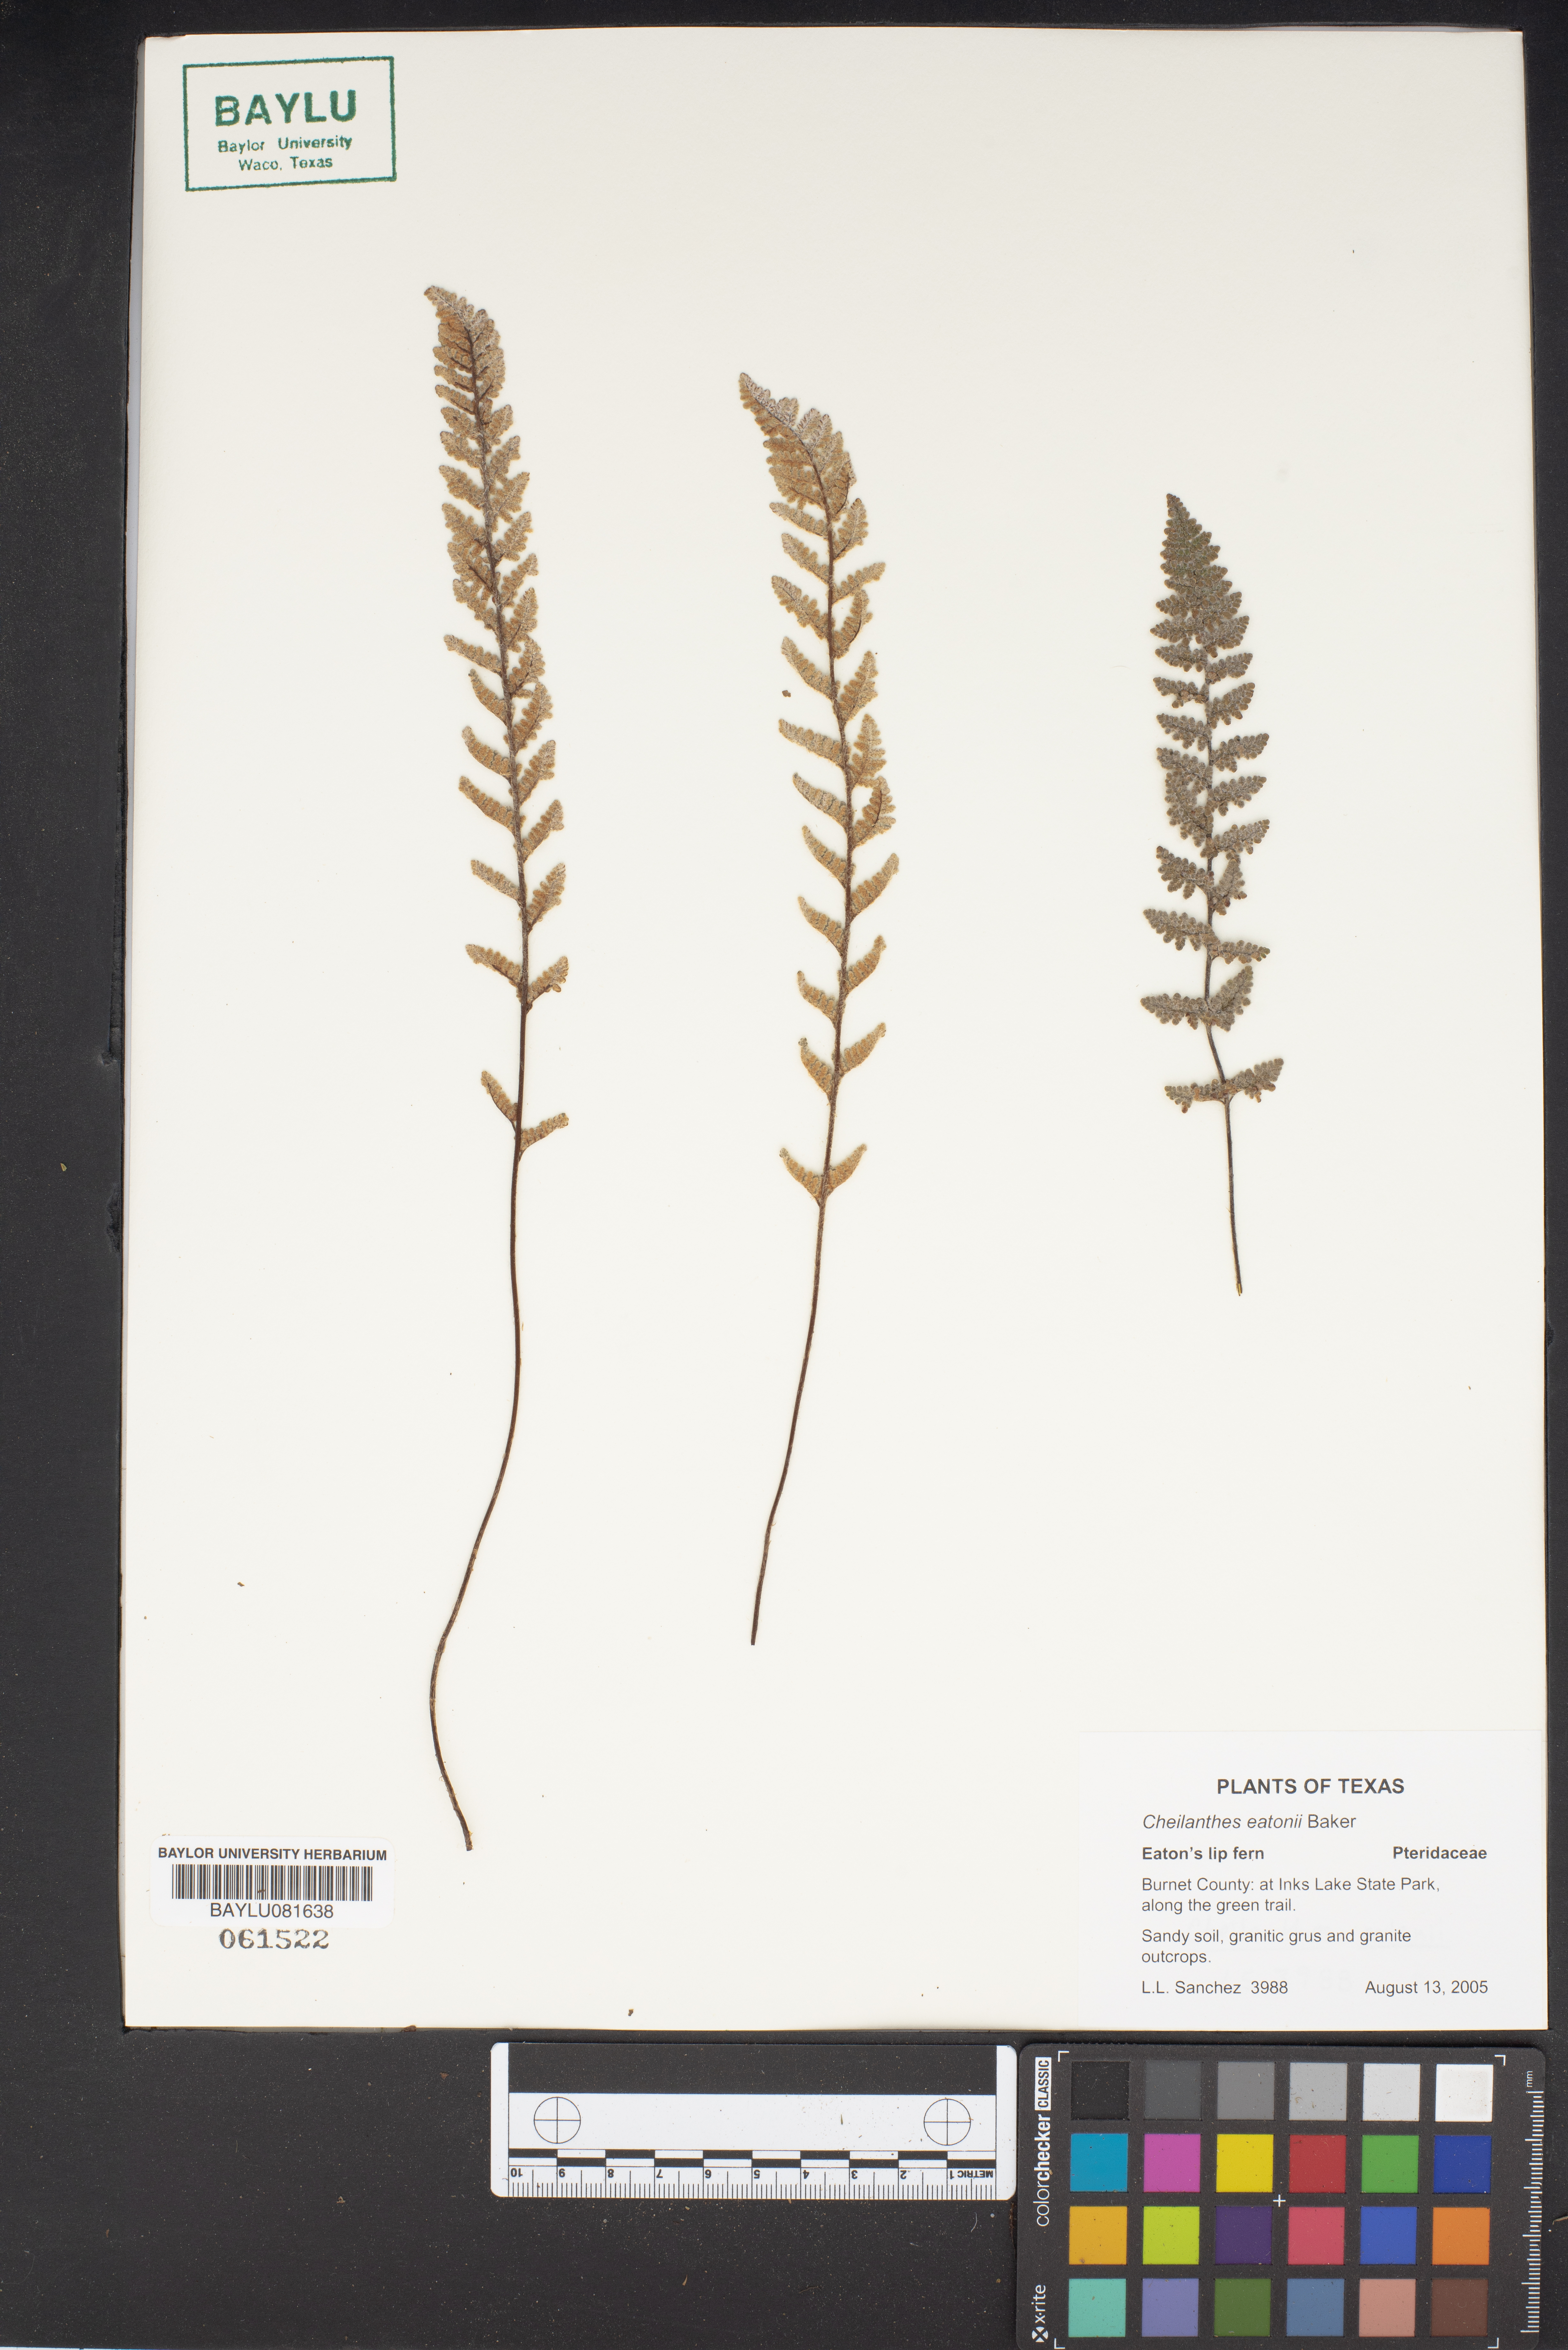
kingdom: Plantae
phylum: Tracheophyta
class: Polypodiopsida
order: Polypodiales
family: Pteridaceae
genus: Myriopteris
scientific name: Myriopteris rufa
